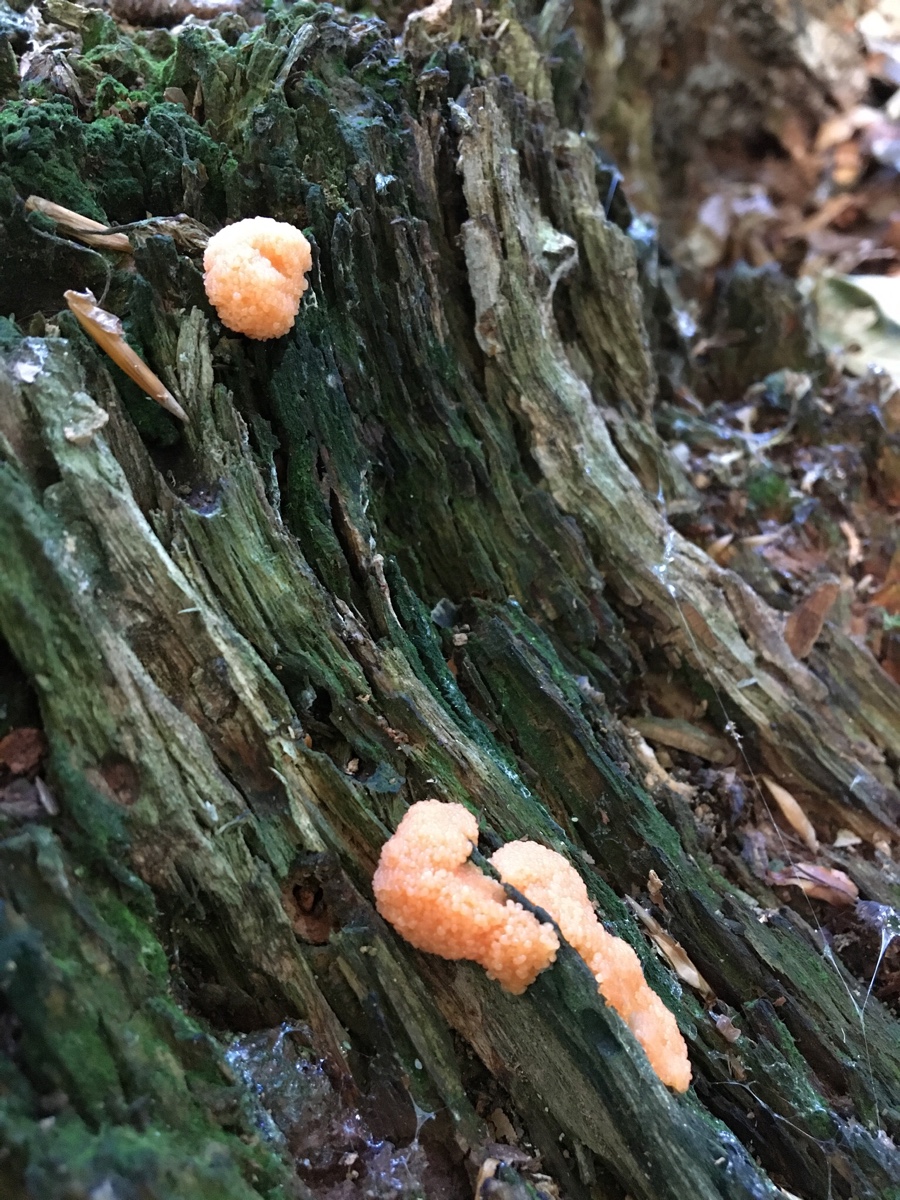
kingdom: Protozoa
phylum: Mycetozoa
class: Myxomycetes
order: Cribrariales
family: Tubiferaceae
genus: Tubifera
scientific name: Tubifera ferruginosa
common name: kanel-støvrør
